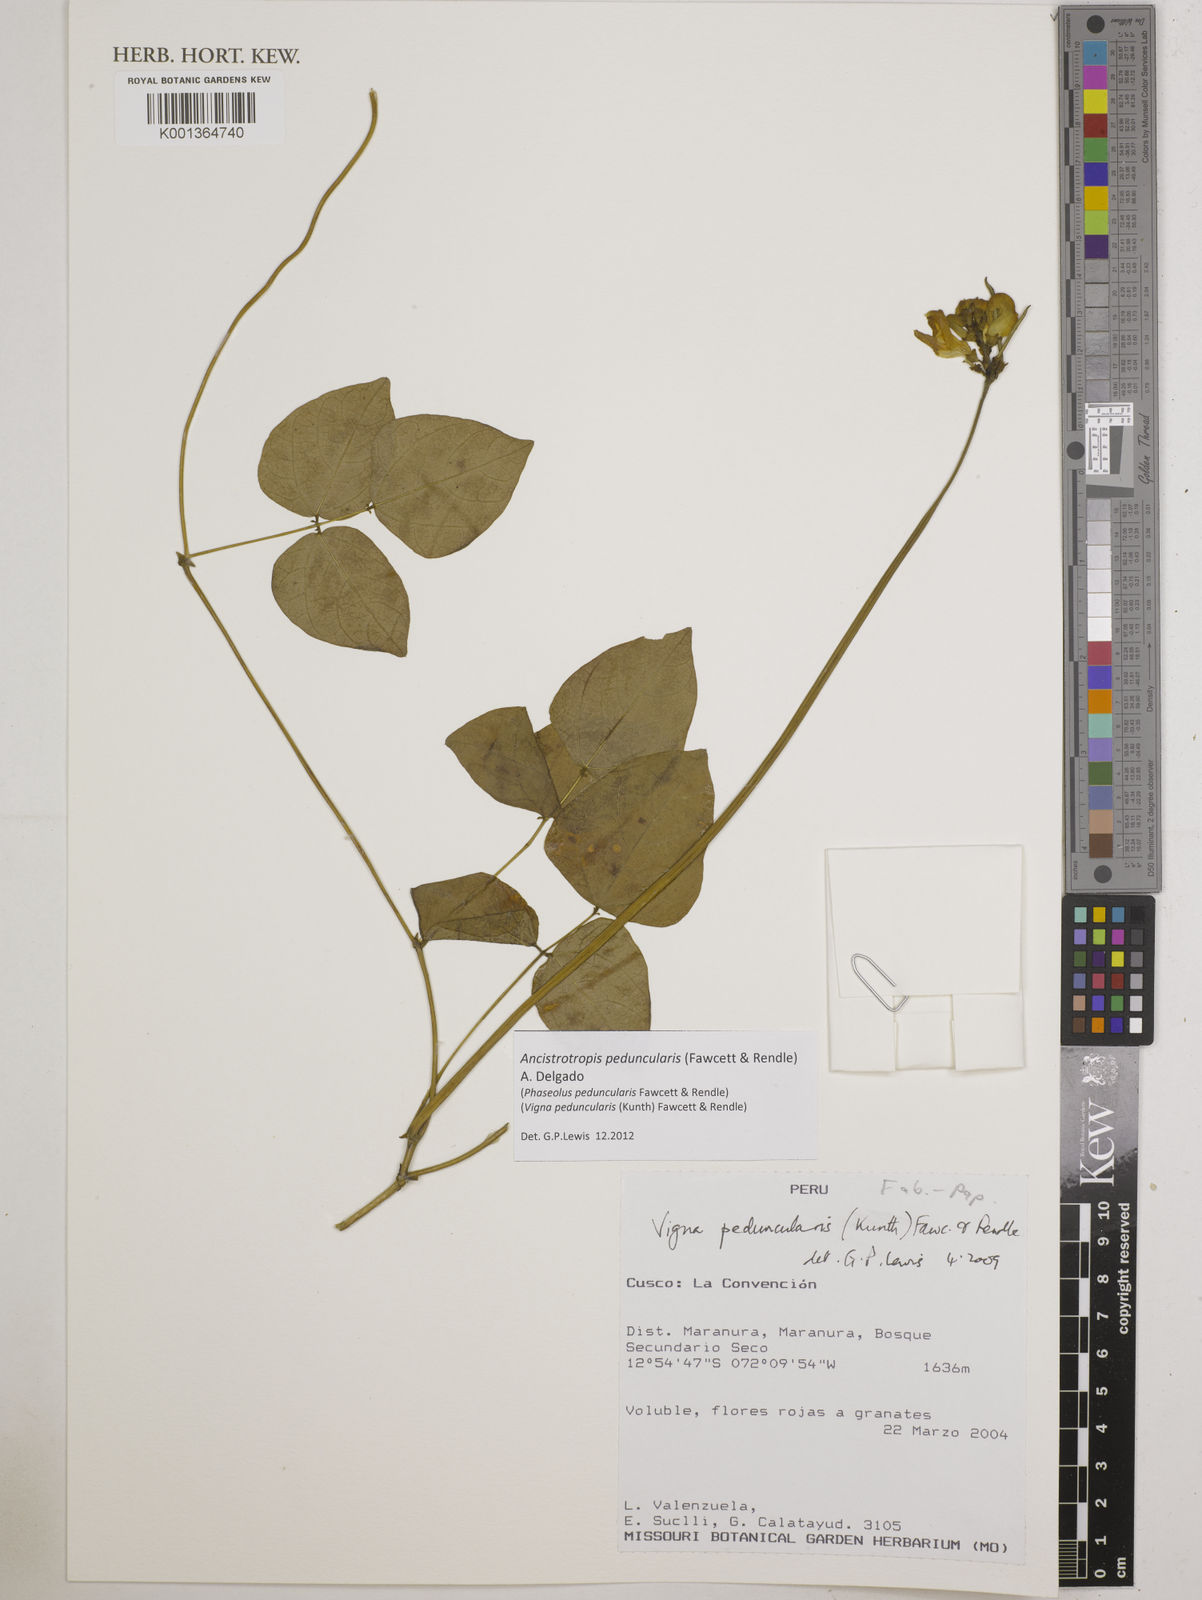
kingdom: Plantae
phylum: Tracheophyta
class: Magnoliopsida
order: Fabales
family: Fabaceae
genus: Ancistrotropis
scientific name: Ancistrotropis peduncularis
